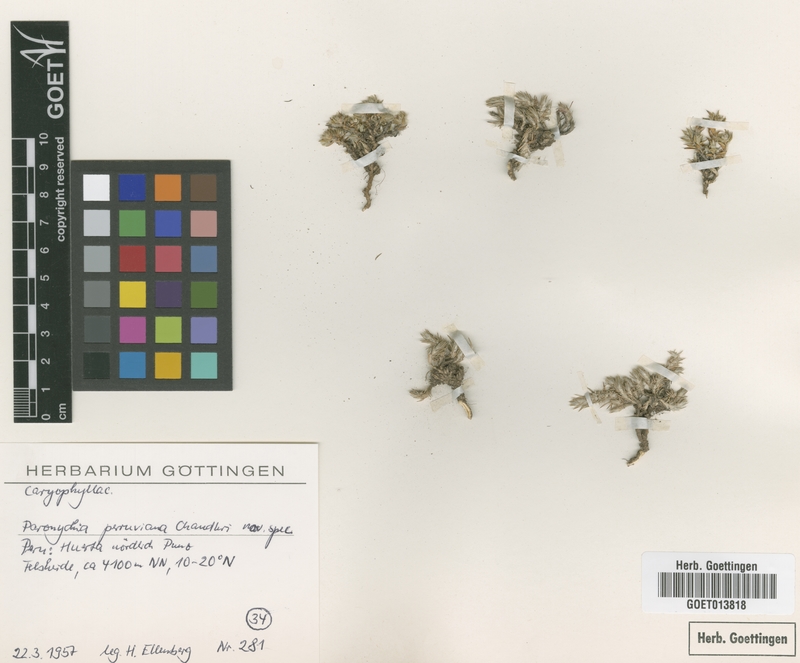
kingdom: Plantae
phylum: Tracheophyta
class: Magnoliopsida
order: Caryophyllales
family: Caryophyllaceae
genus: Paronychia
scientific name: Paronychia peruviana
